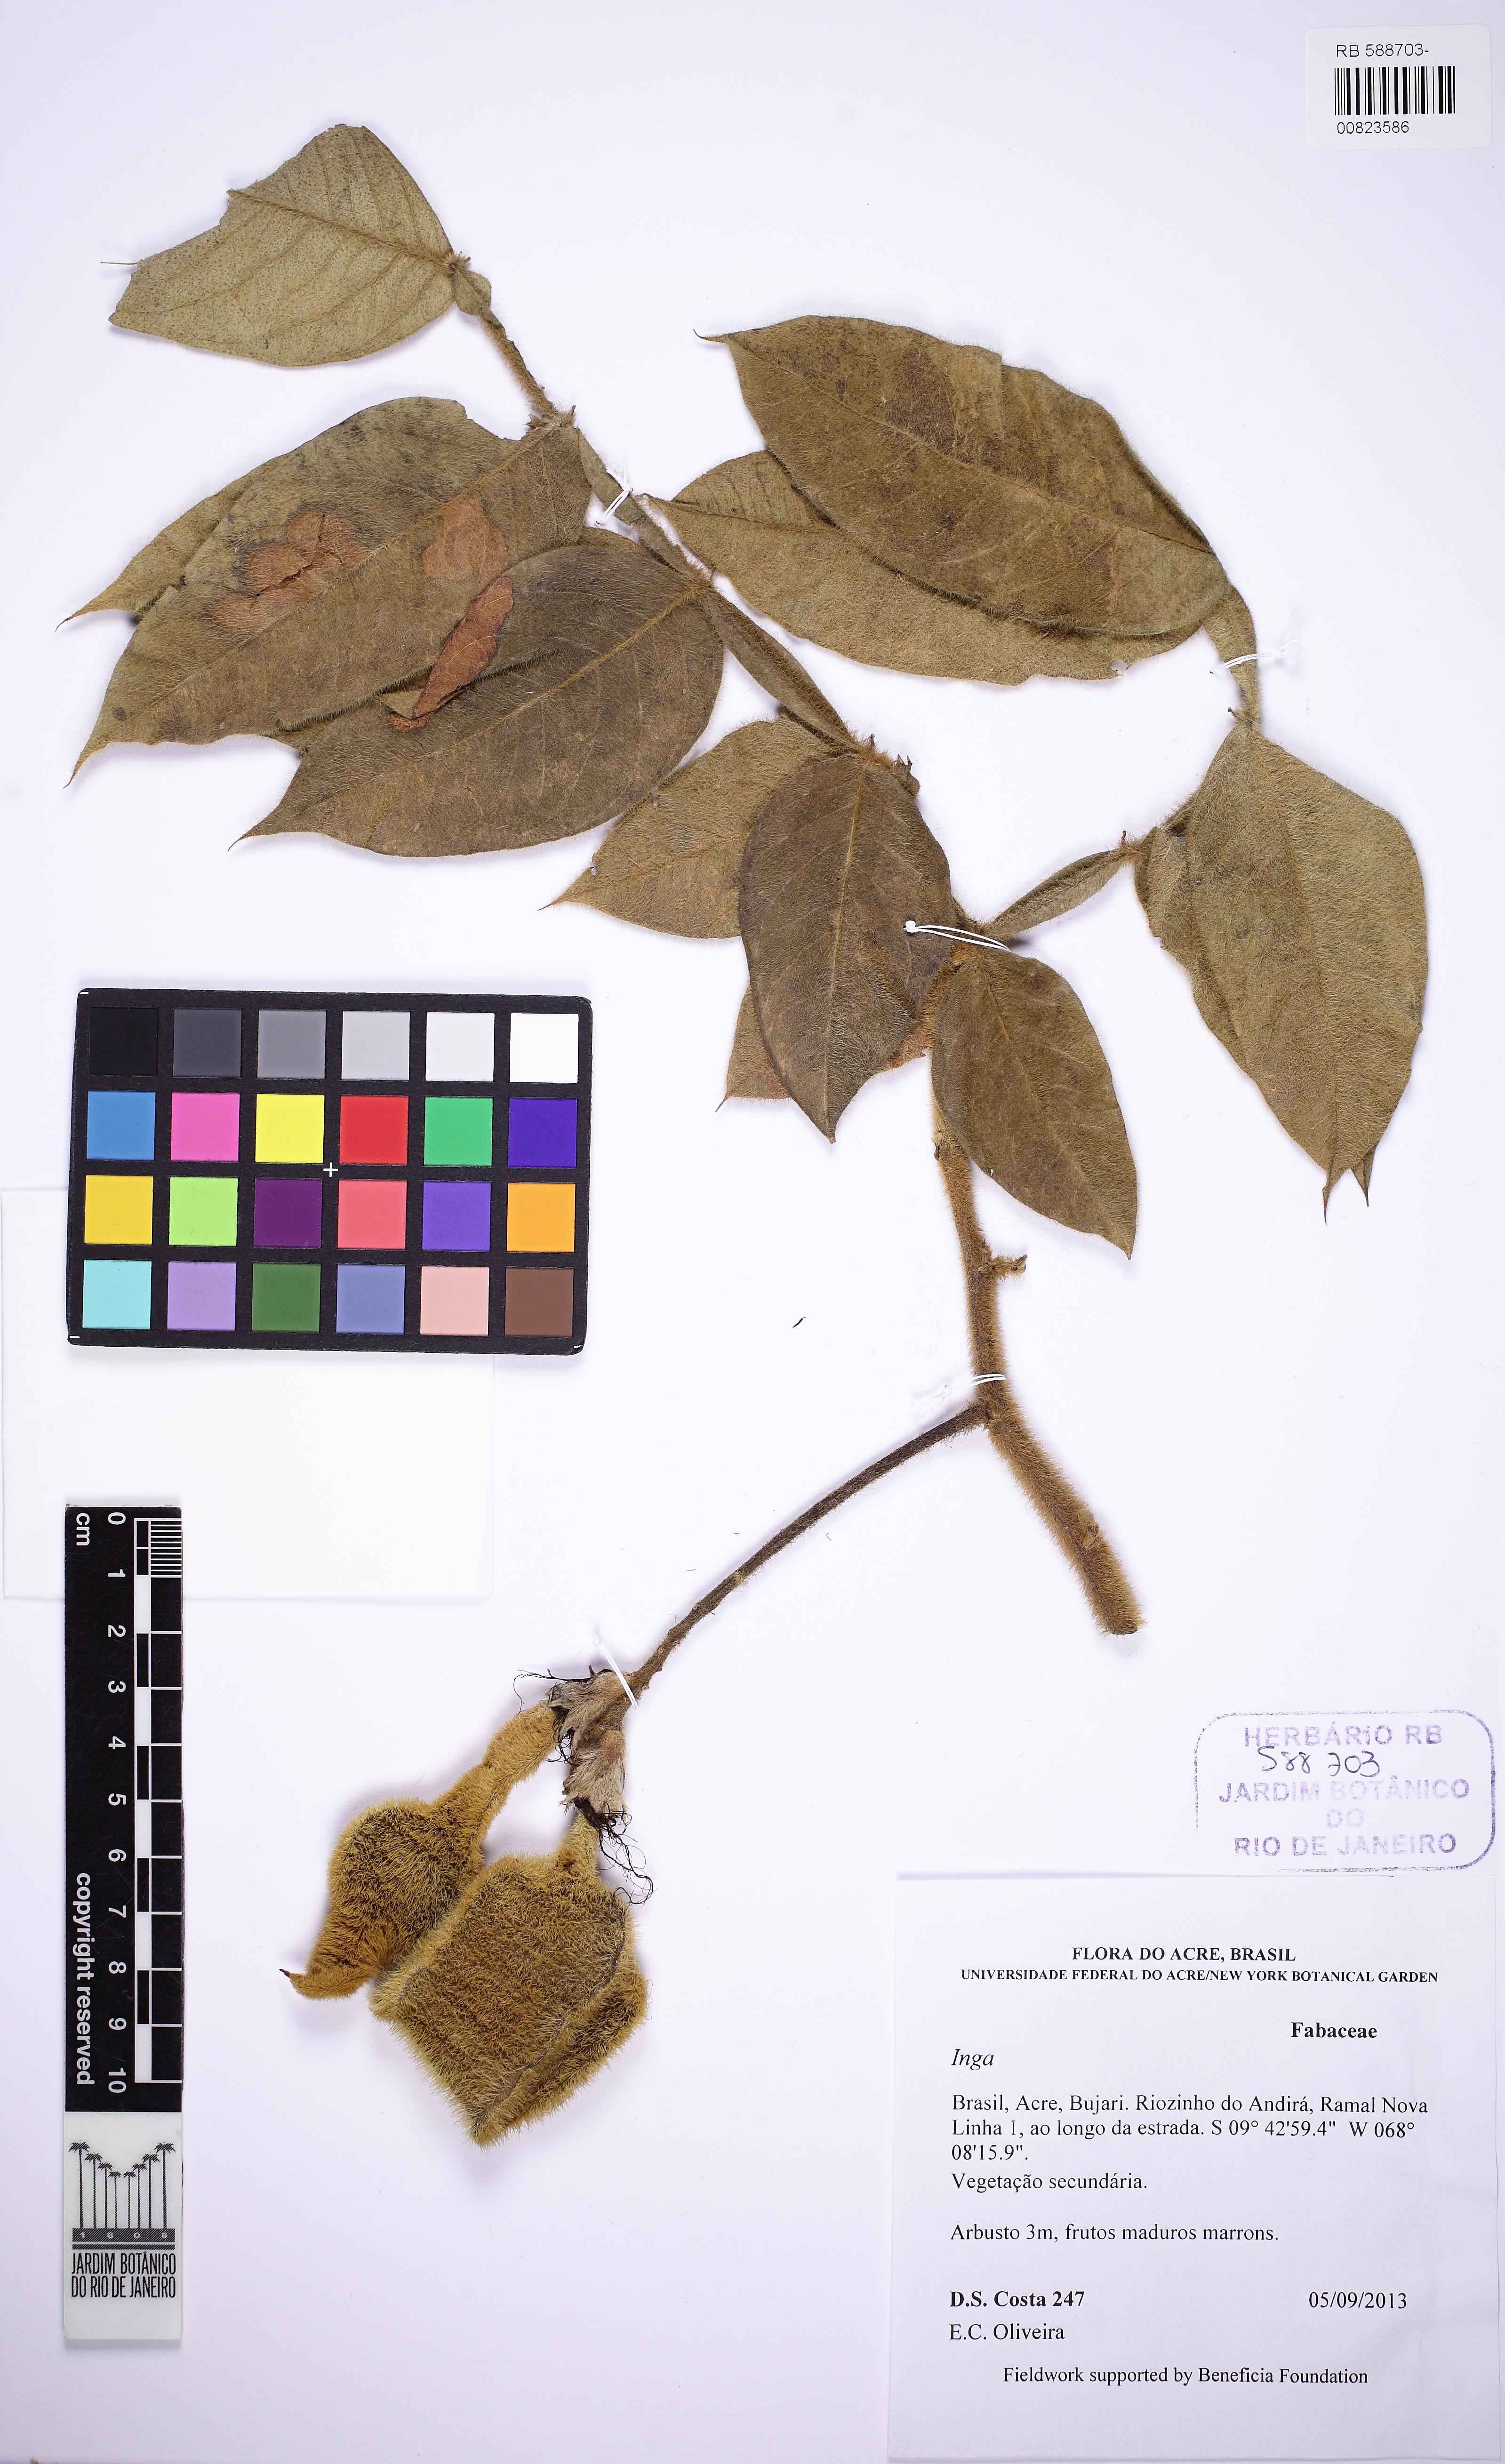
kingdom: Plantae
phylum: Tracheophyta
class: Magnoliopsida
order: Fabales
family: Fabaceae
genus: Inga
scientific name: Inga
